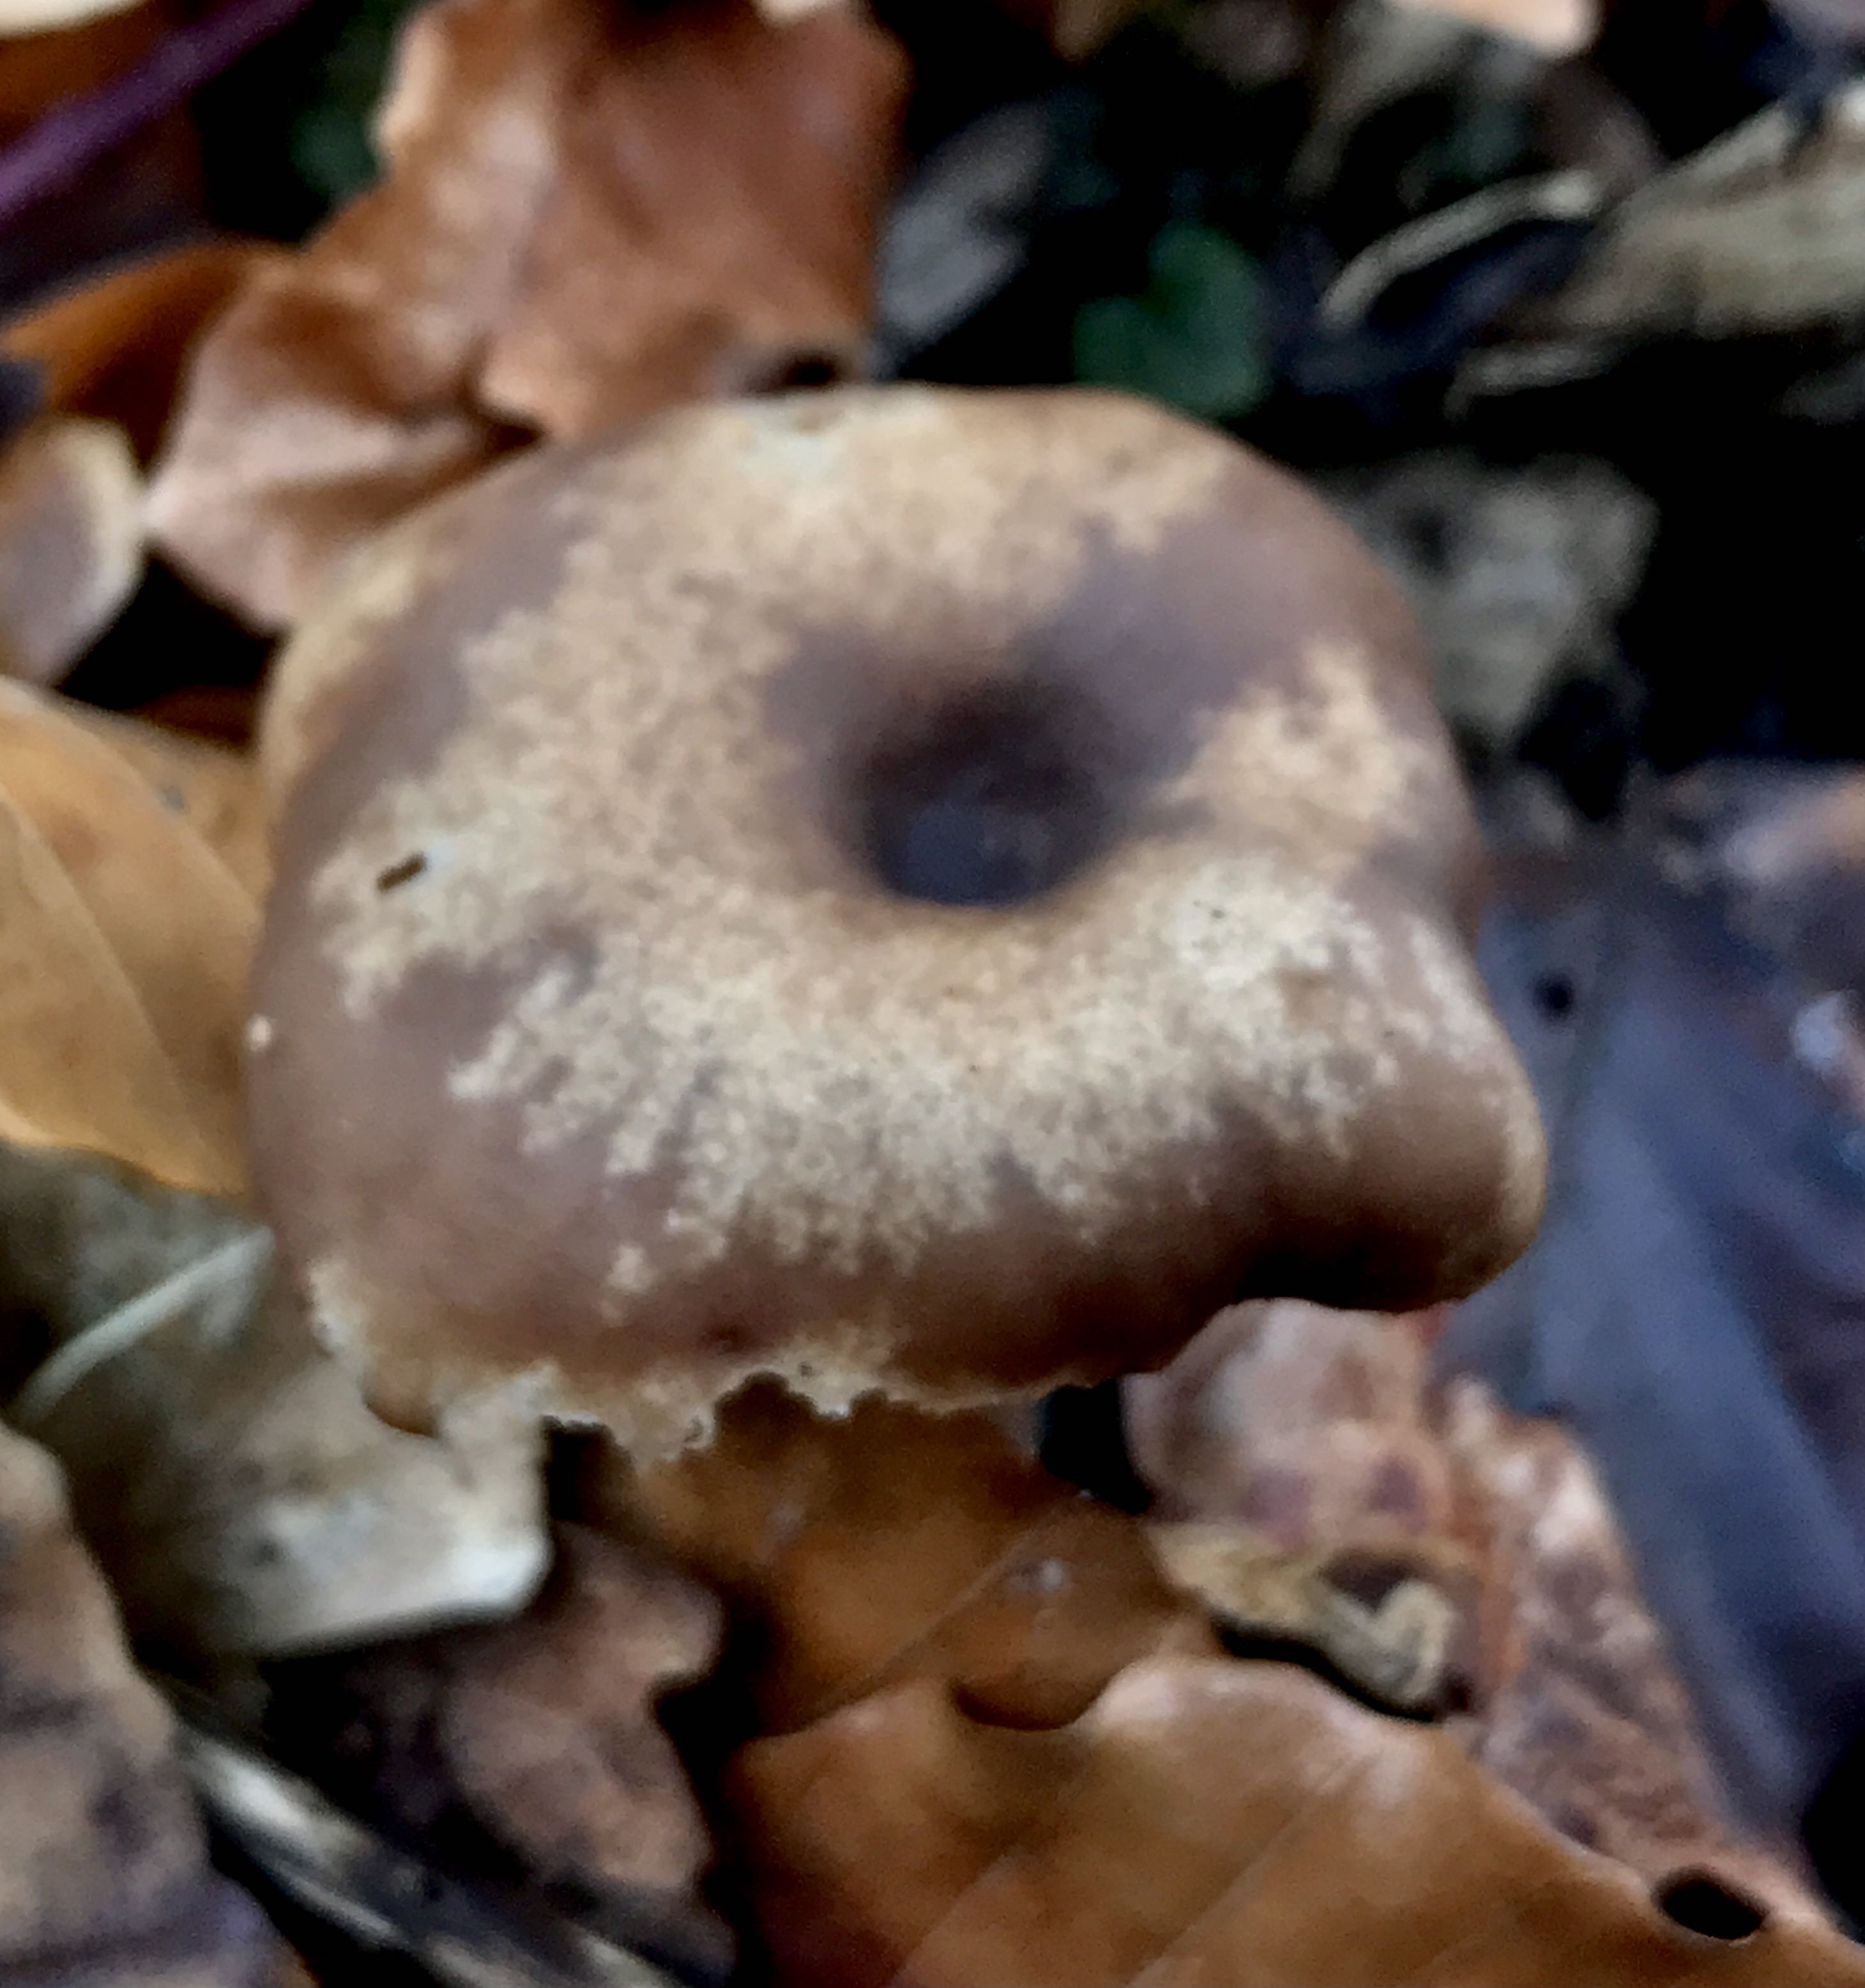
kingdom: Fungi
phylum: Basidiomycota
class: Agaricomycetes
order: Agaricales
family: Pseudoclitocybaceae
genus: Pseudoclitocybe
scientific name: Pseudoclitocybe cyathiformis
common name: almindelig bægertragthat
